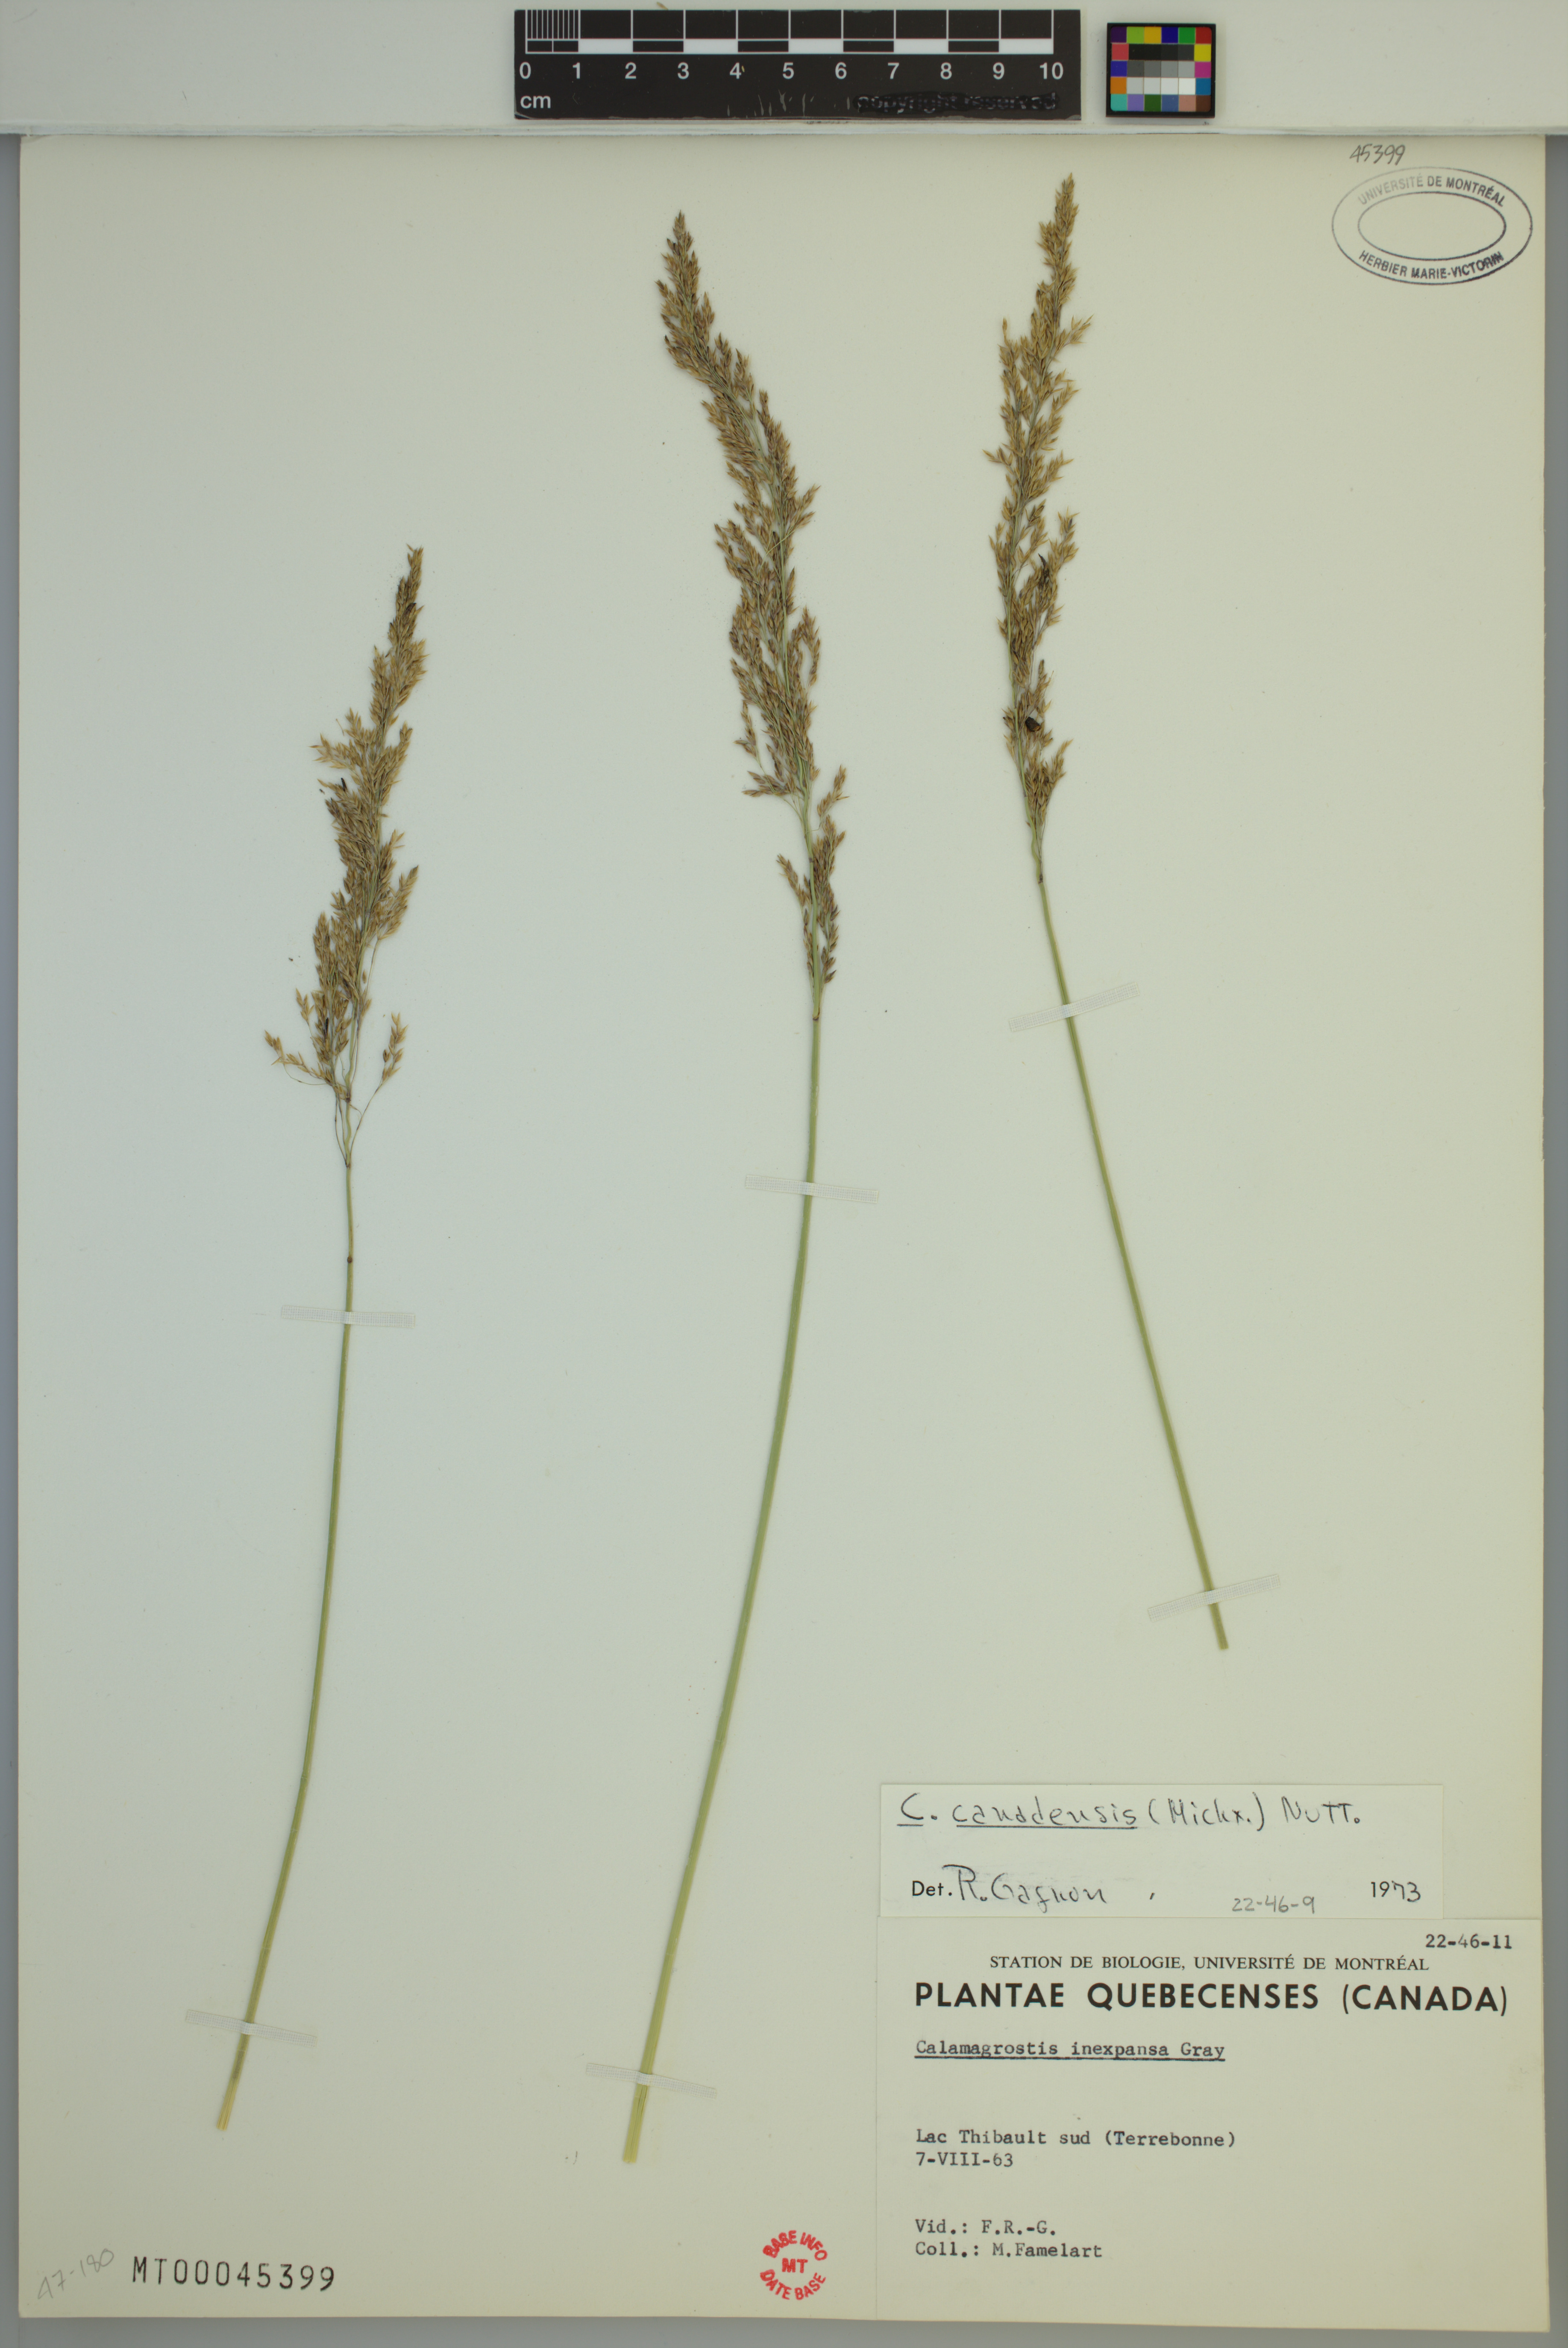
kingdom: Plantae
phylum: Tracheophyta
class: Liliopsida
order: Poales
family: Poaceae
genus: Calamagrostis
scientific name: Calamagrostis canadensis
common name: Canada bluejoint
